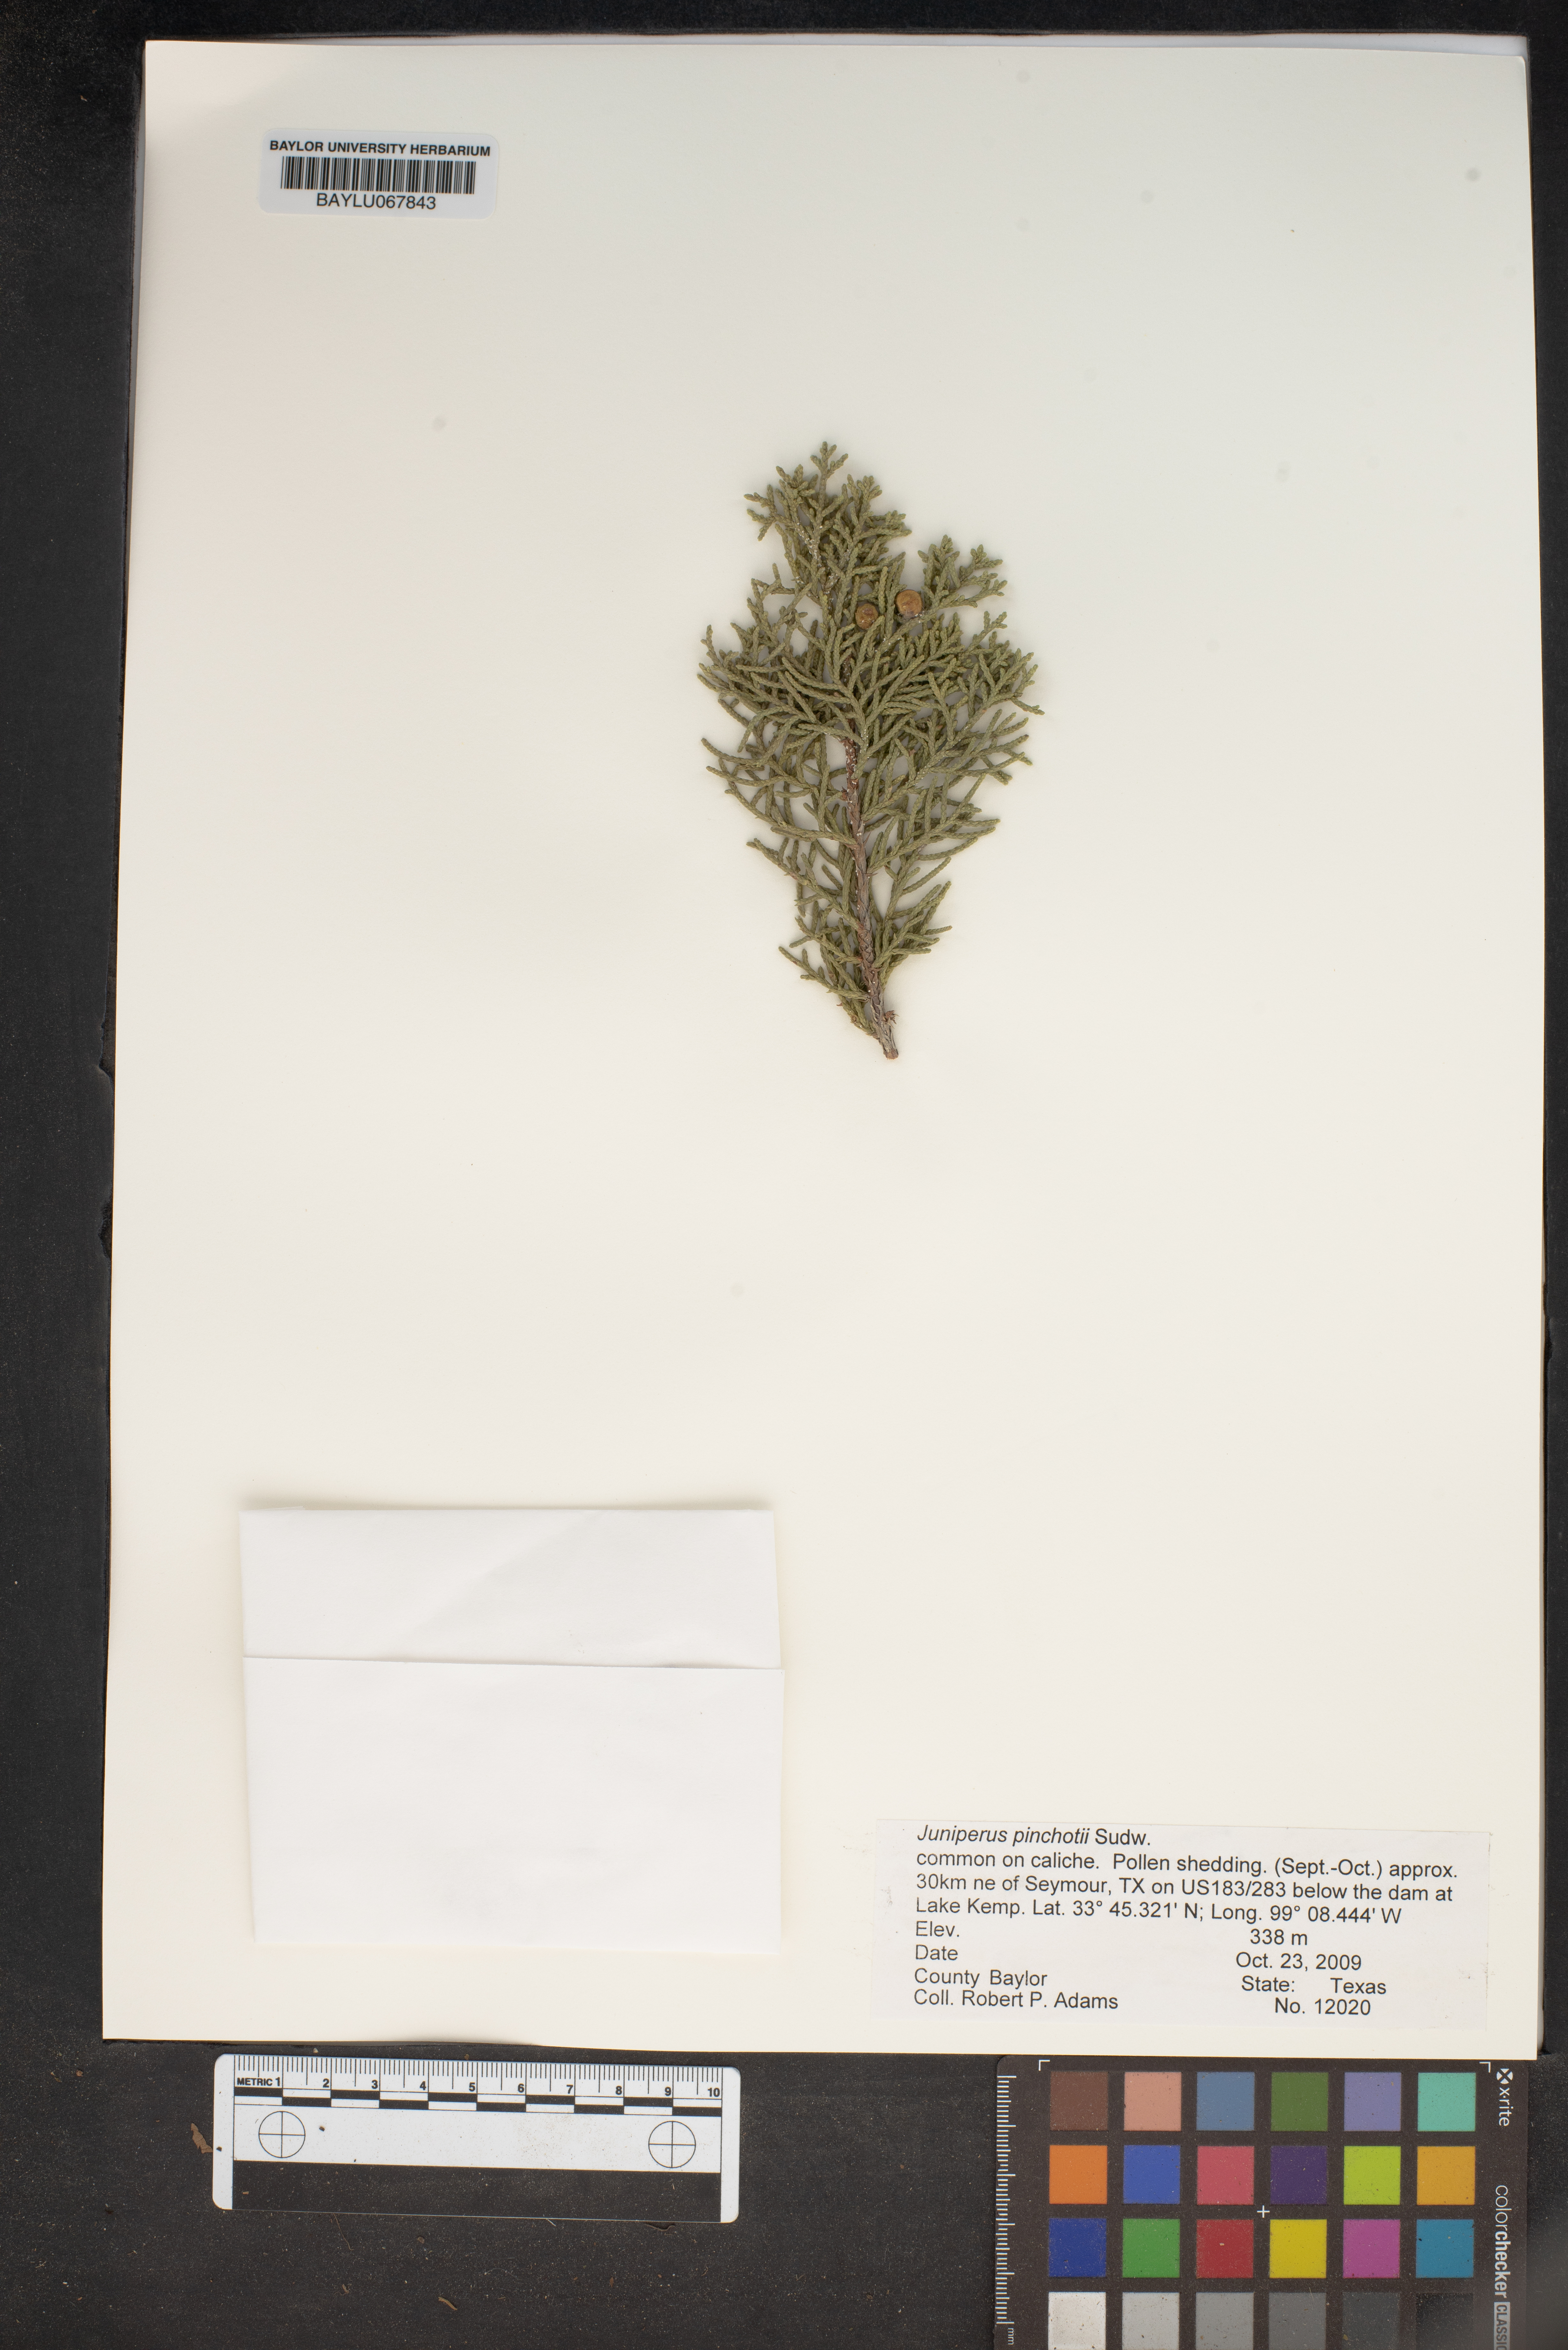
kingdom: Plantae
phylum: Tracheophyta
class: Pinopsida
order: Pinales
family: Cupressaceae
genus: Juniperus
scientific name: Juniperus pinchotii
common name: Pinchot juniper
